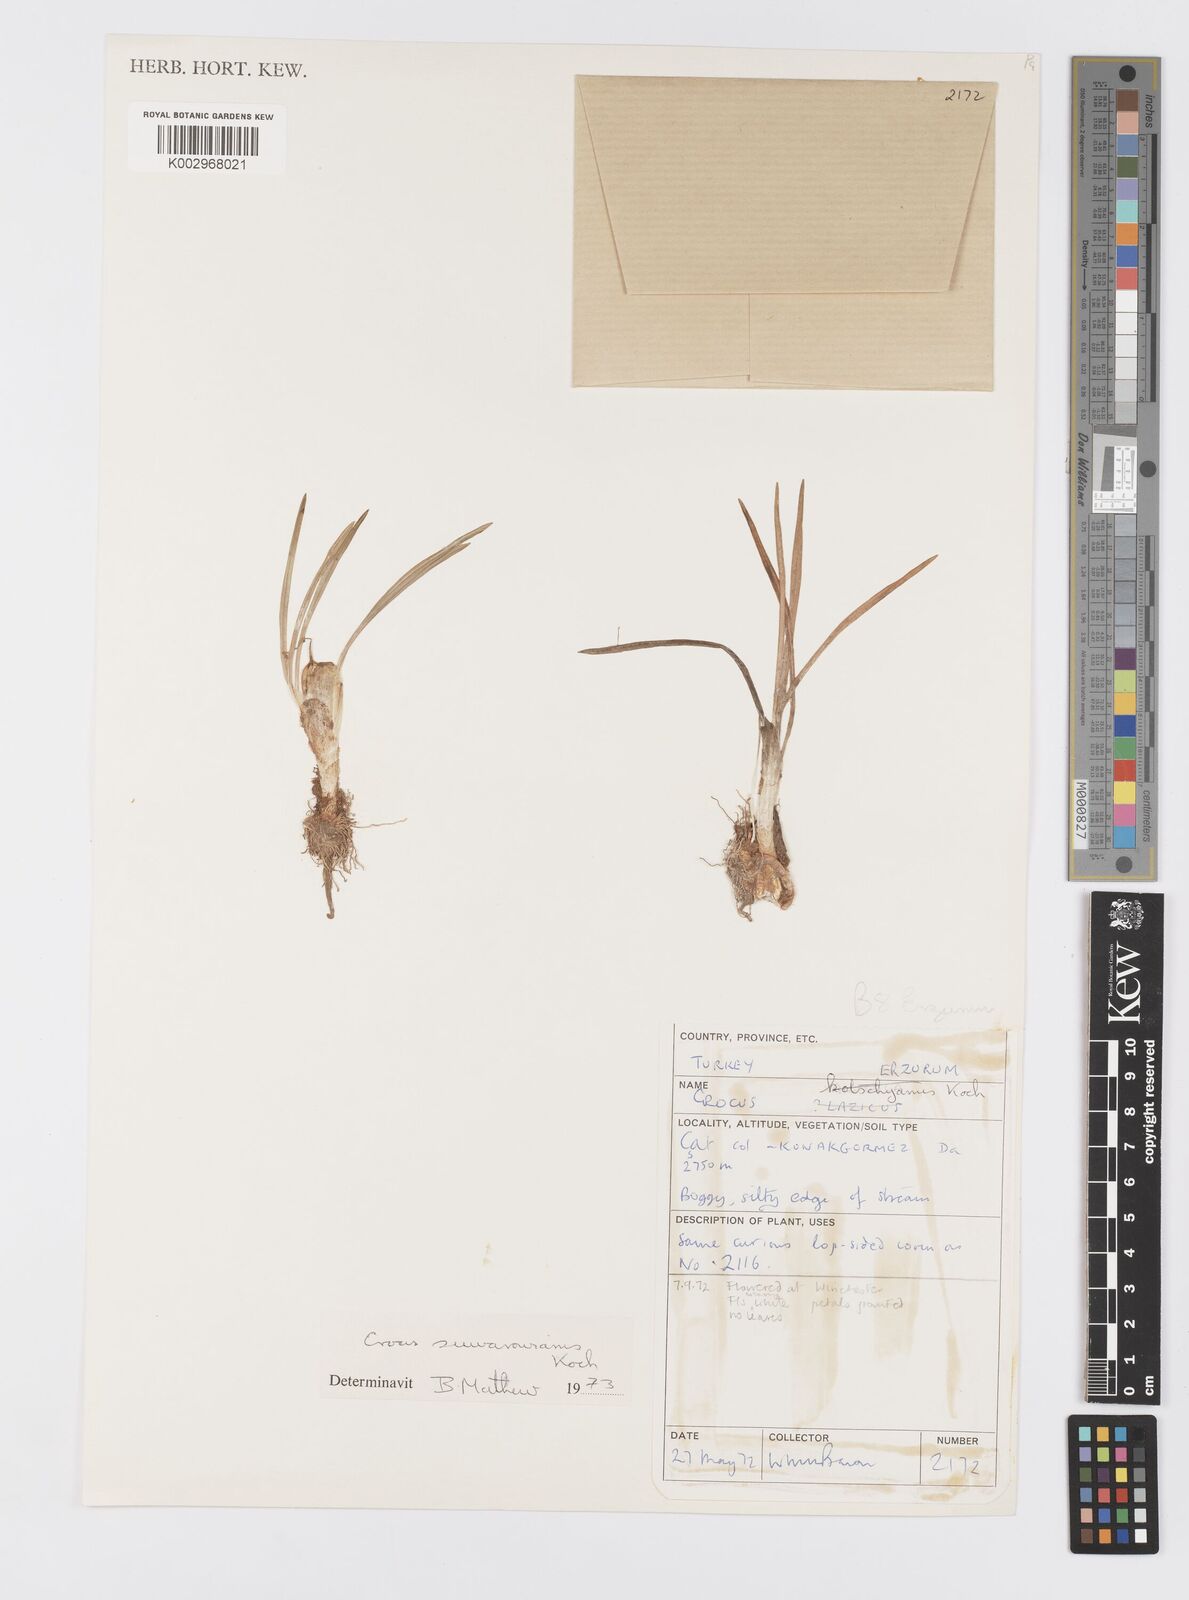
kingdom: Plantae
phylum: Tracheophyta
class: Liliopsida
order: Asparagales
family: Iridaceae
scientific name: Iridaceae
